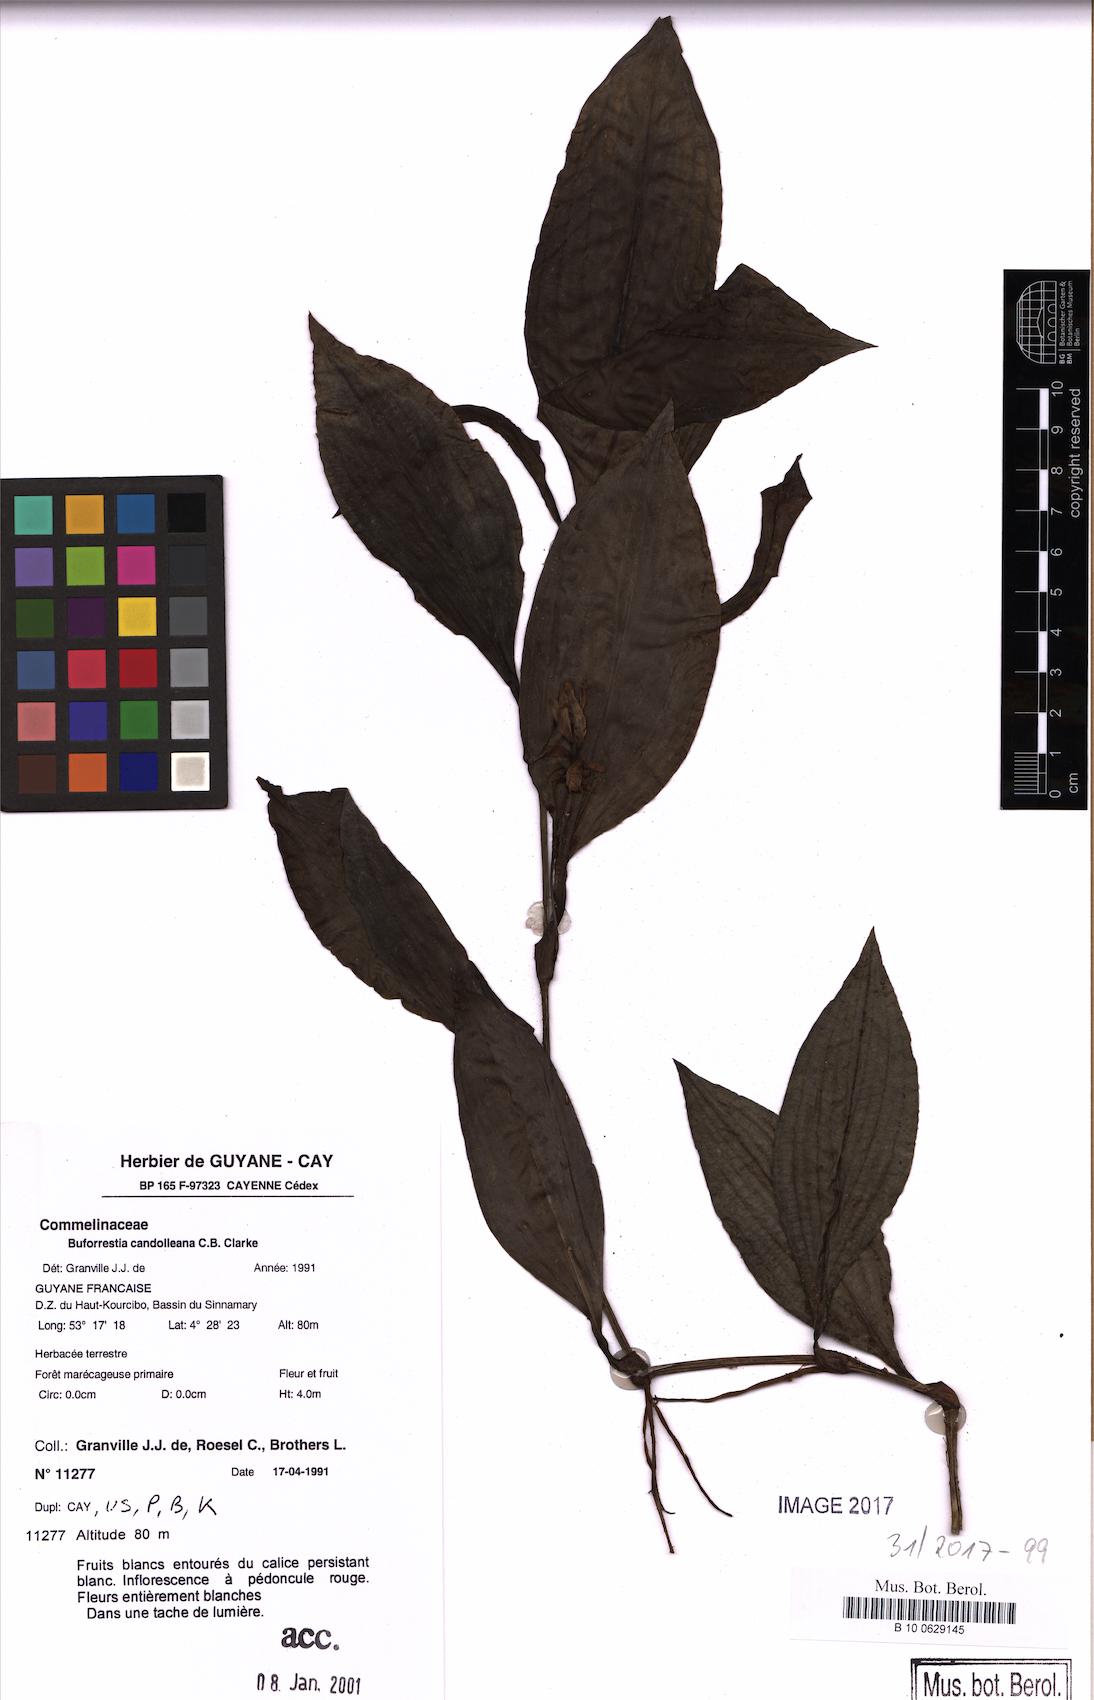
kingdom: Plantae
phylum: Tracheophyta
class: Liliopsida
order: Commelinales
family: Commelinaceae
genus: Buforrestia
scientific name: Buforrestia candolleana
